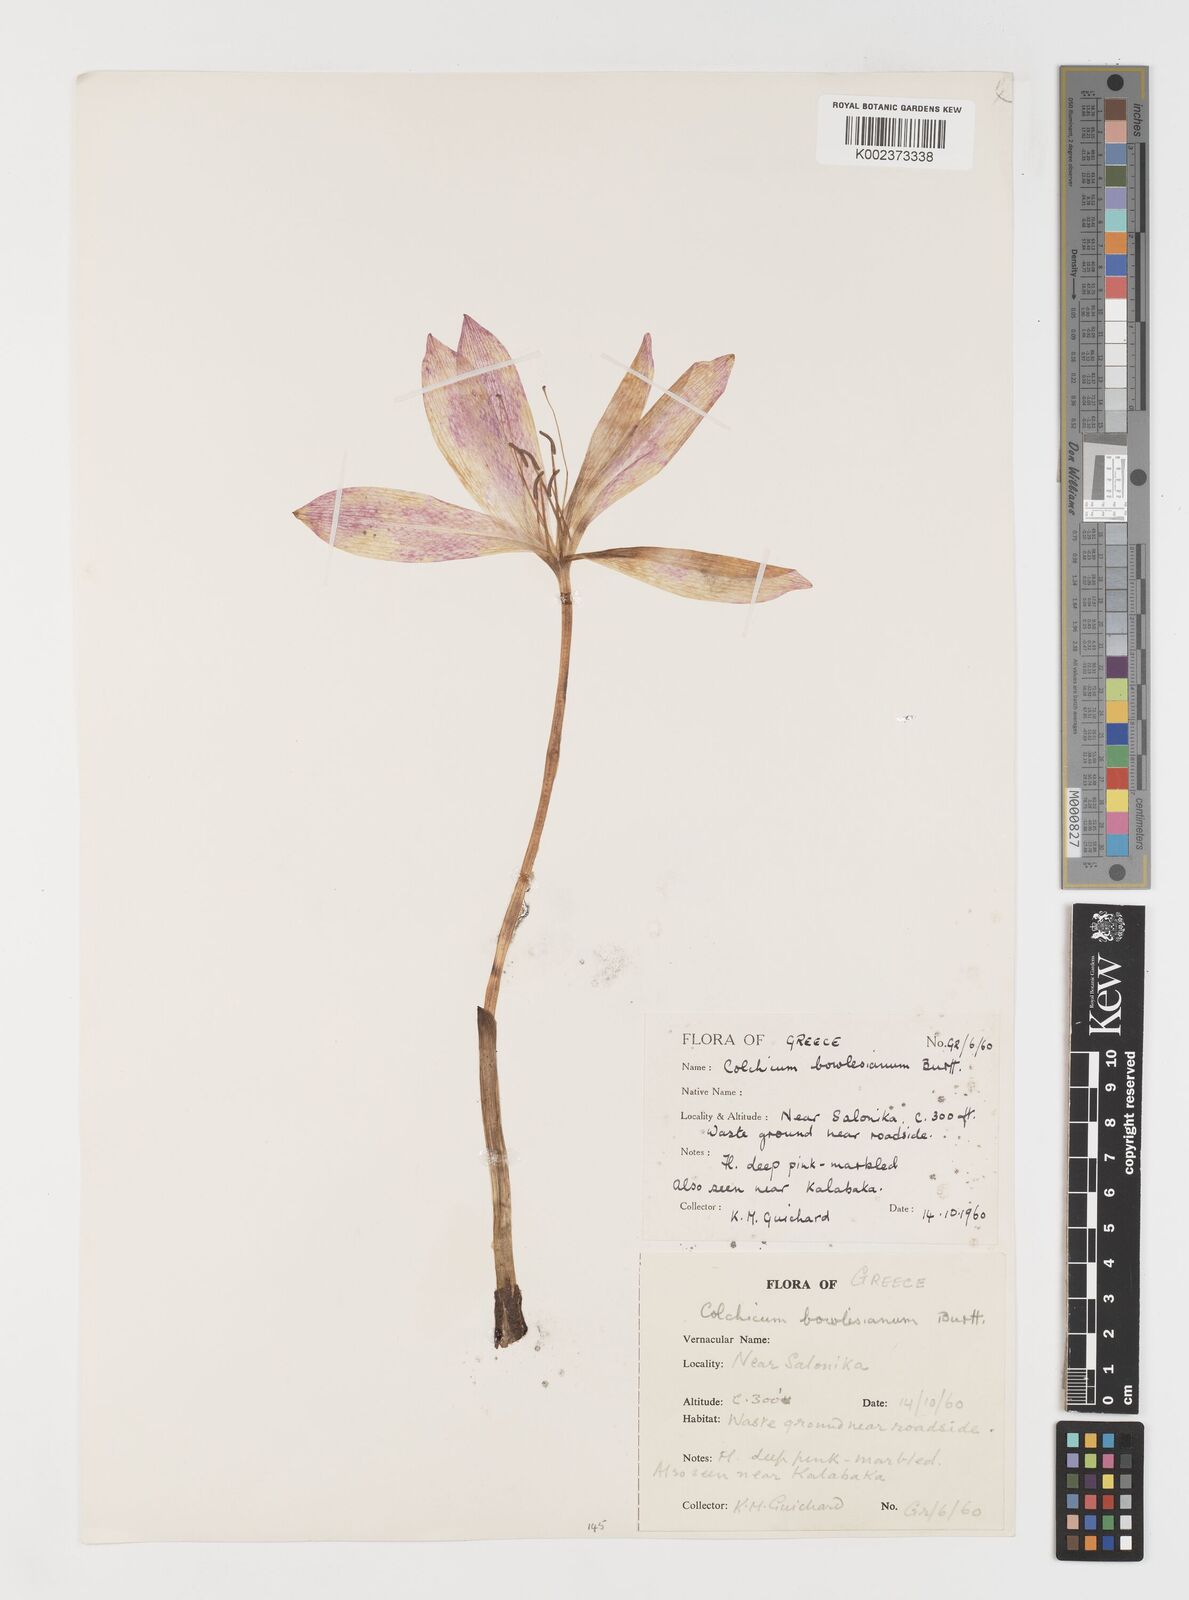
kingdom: Plantae
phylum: Tracheophyta
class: Liliopsida
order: Liliales
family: Colchicaceae
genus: Colchicum
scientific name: Colchicum bivonae
